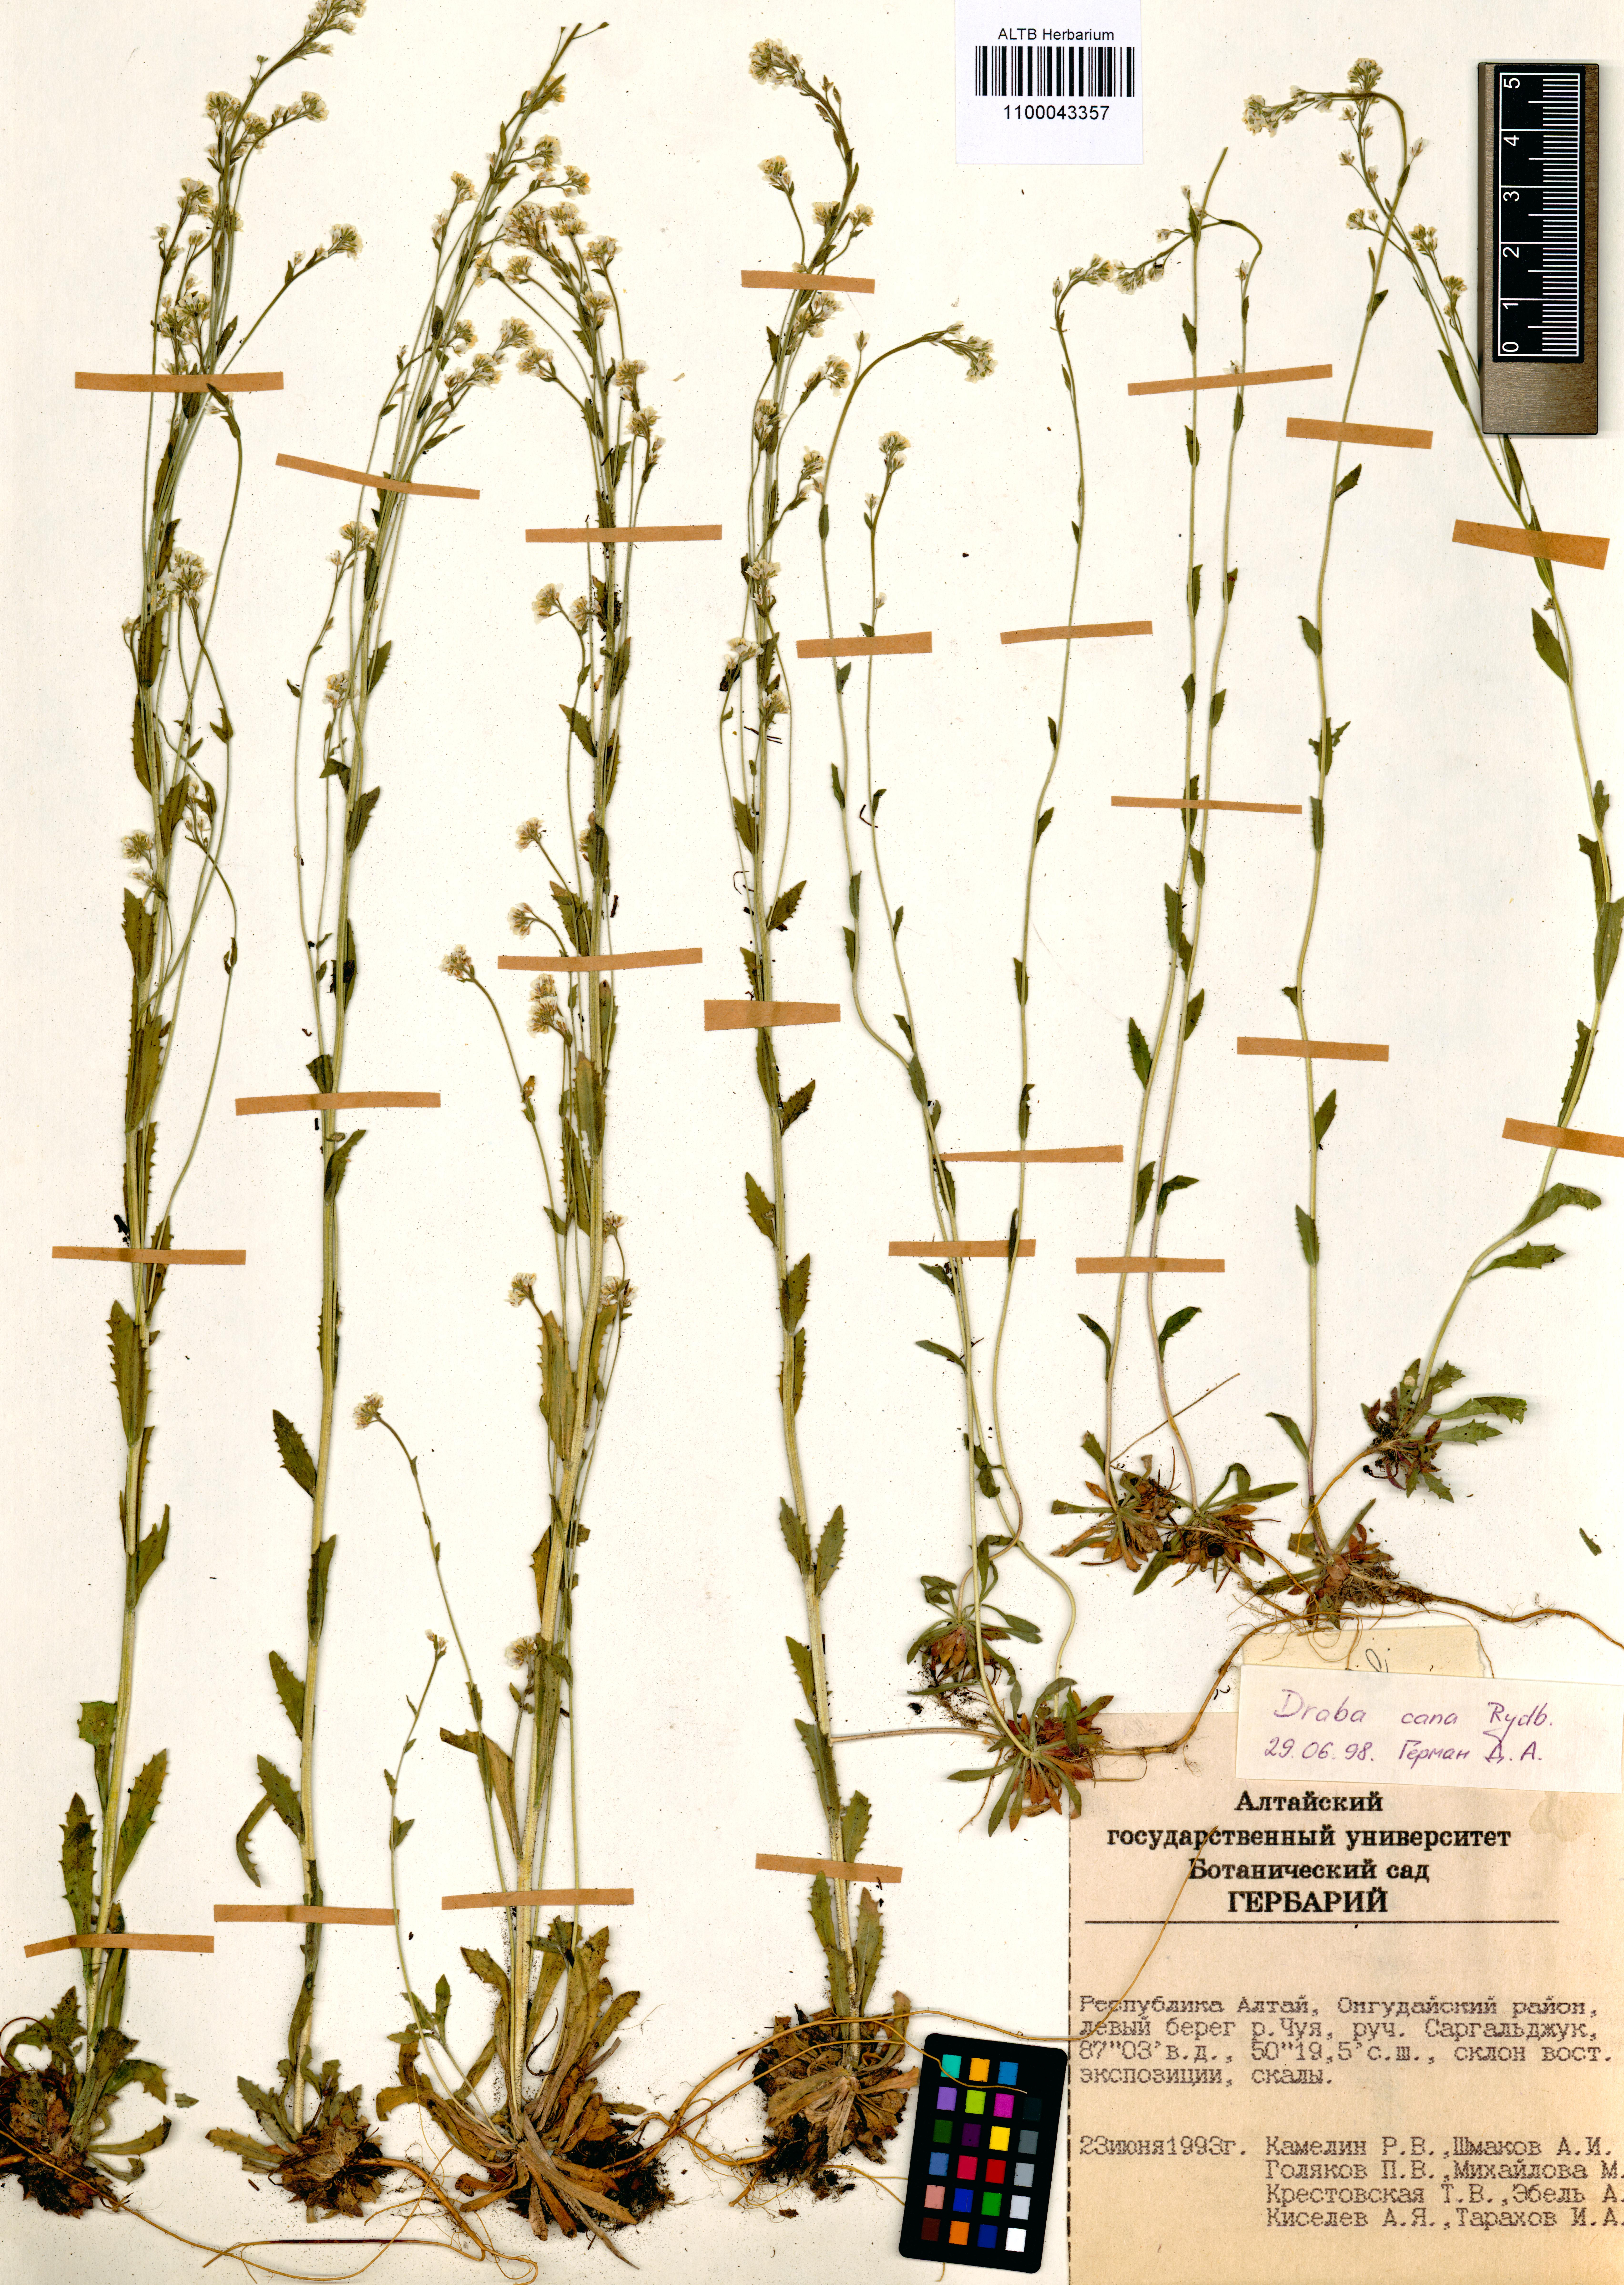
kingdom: Plantae
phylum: Tracheophyta
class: Magnoliopsida
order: Brassicales
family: Brassicaceae
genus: Draba
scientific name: Draba cana
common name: Hoary draba
